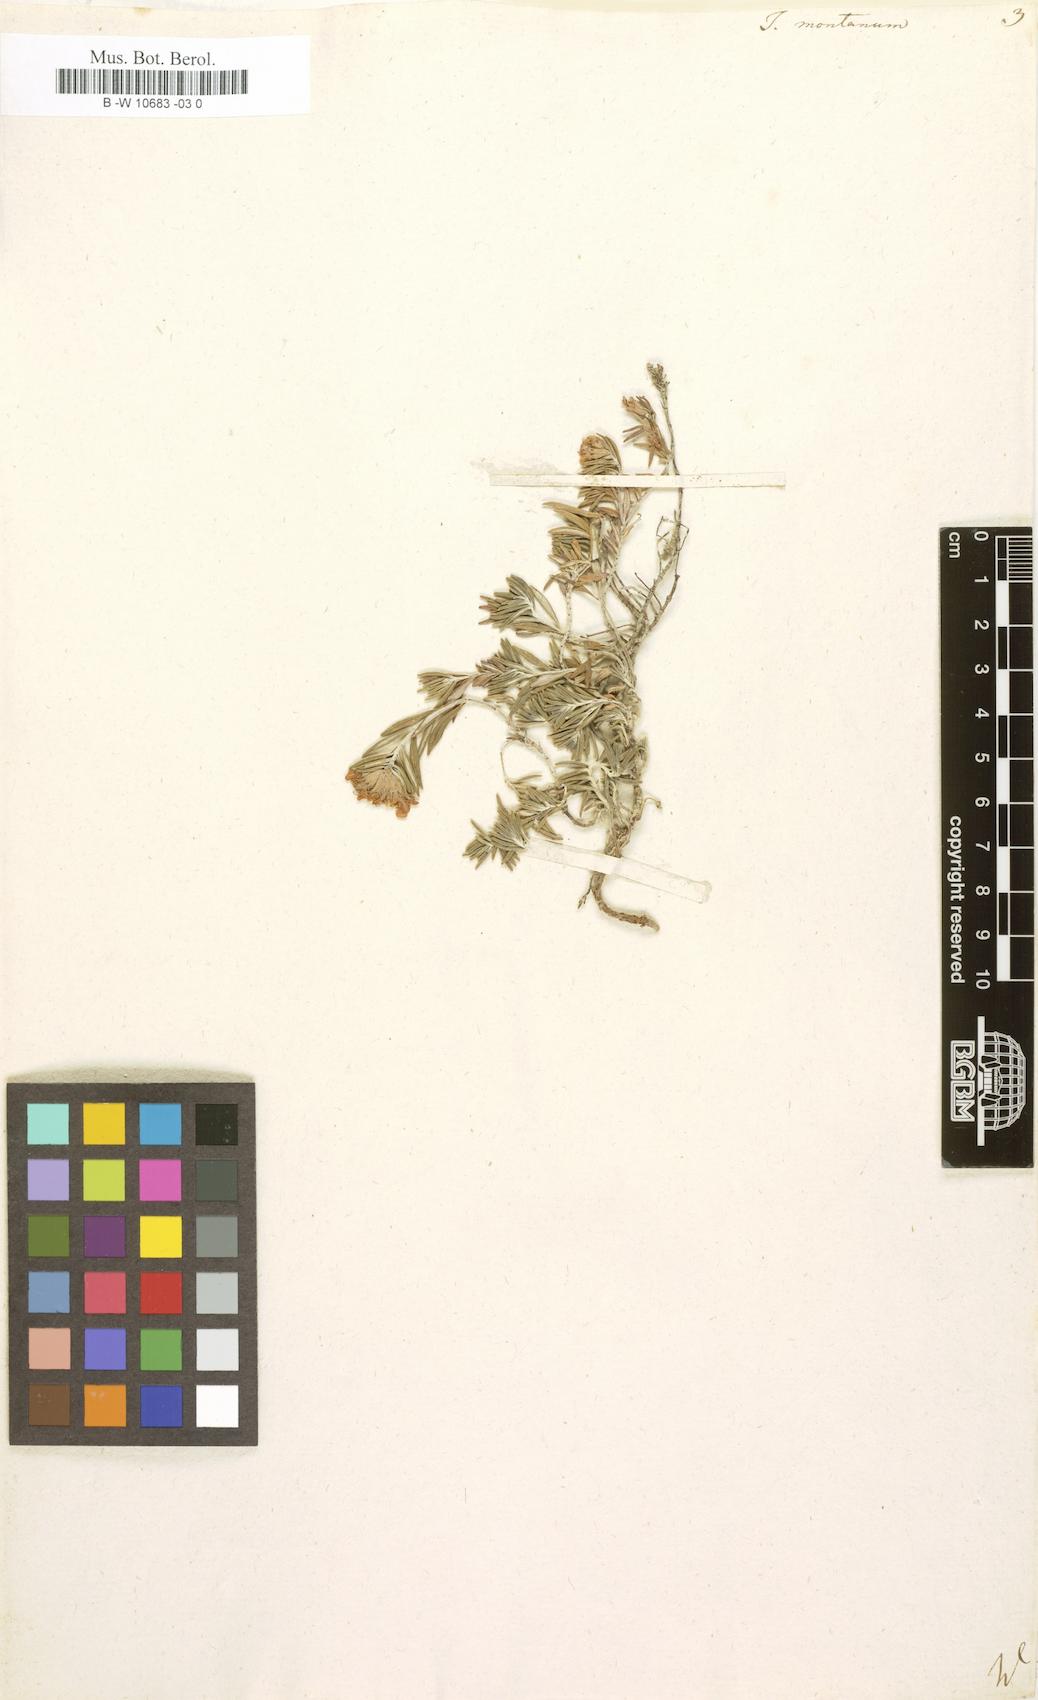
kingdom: Plantae
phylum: Tracheophyta
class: Magnoliopsida
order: Lamiales
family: Lamiaceae
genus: Teucrium
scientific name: Teucrium montanum
